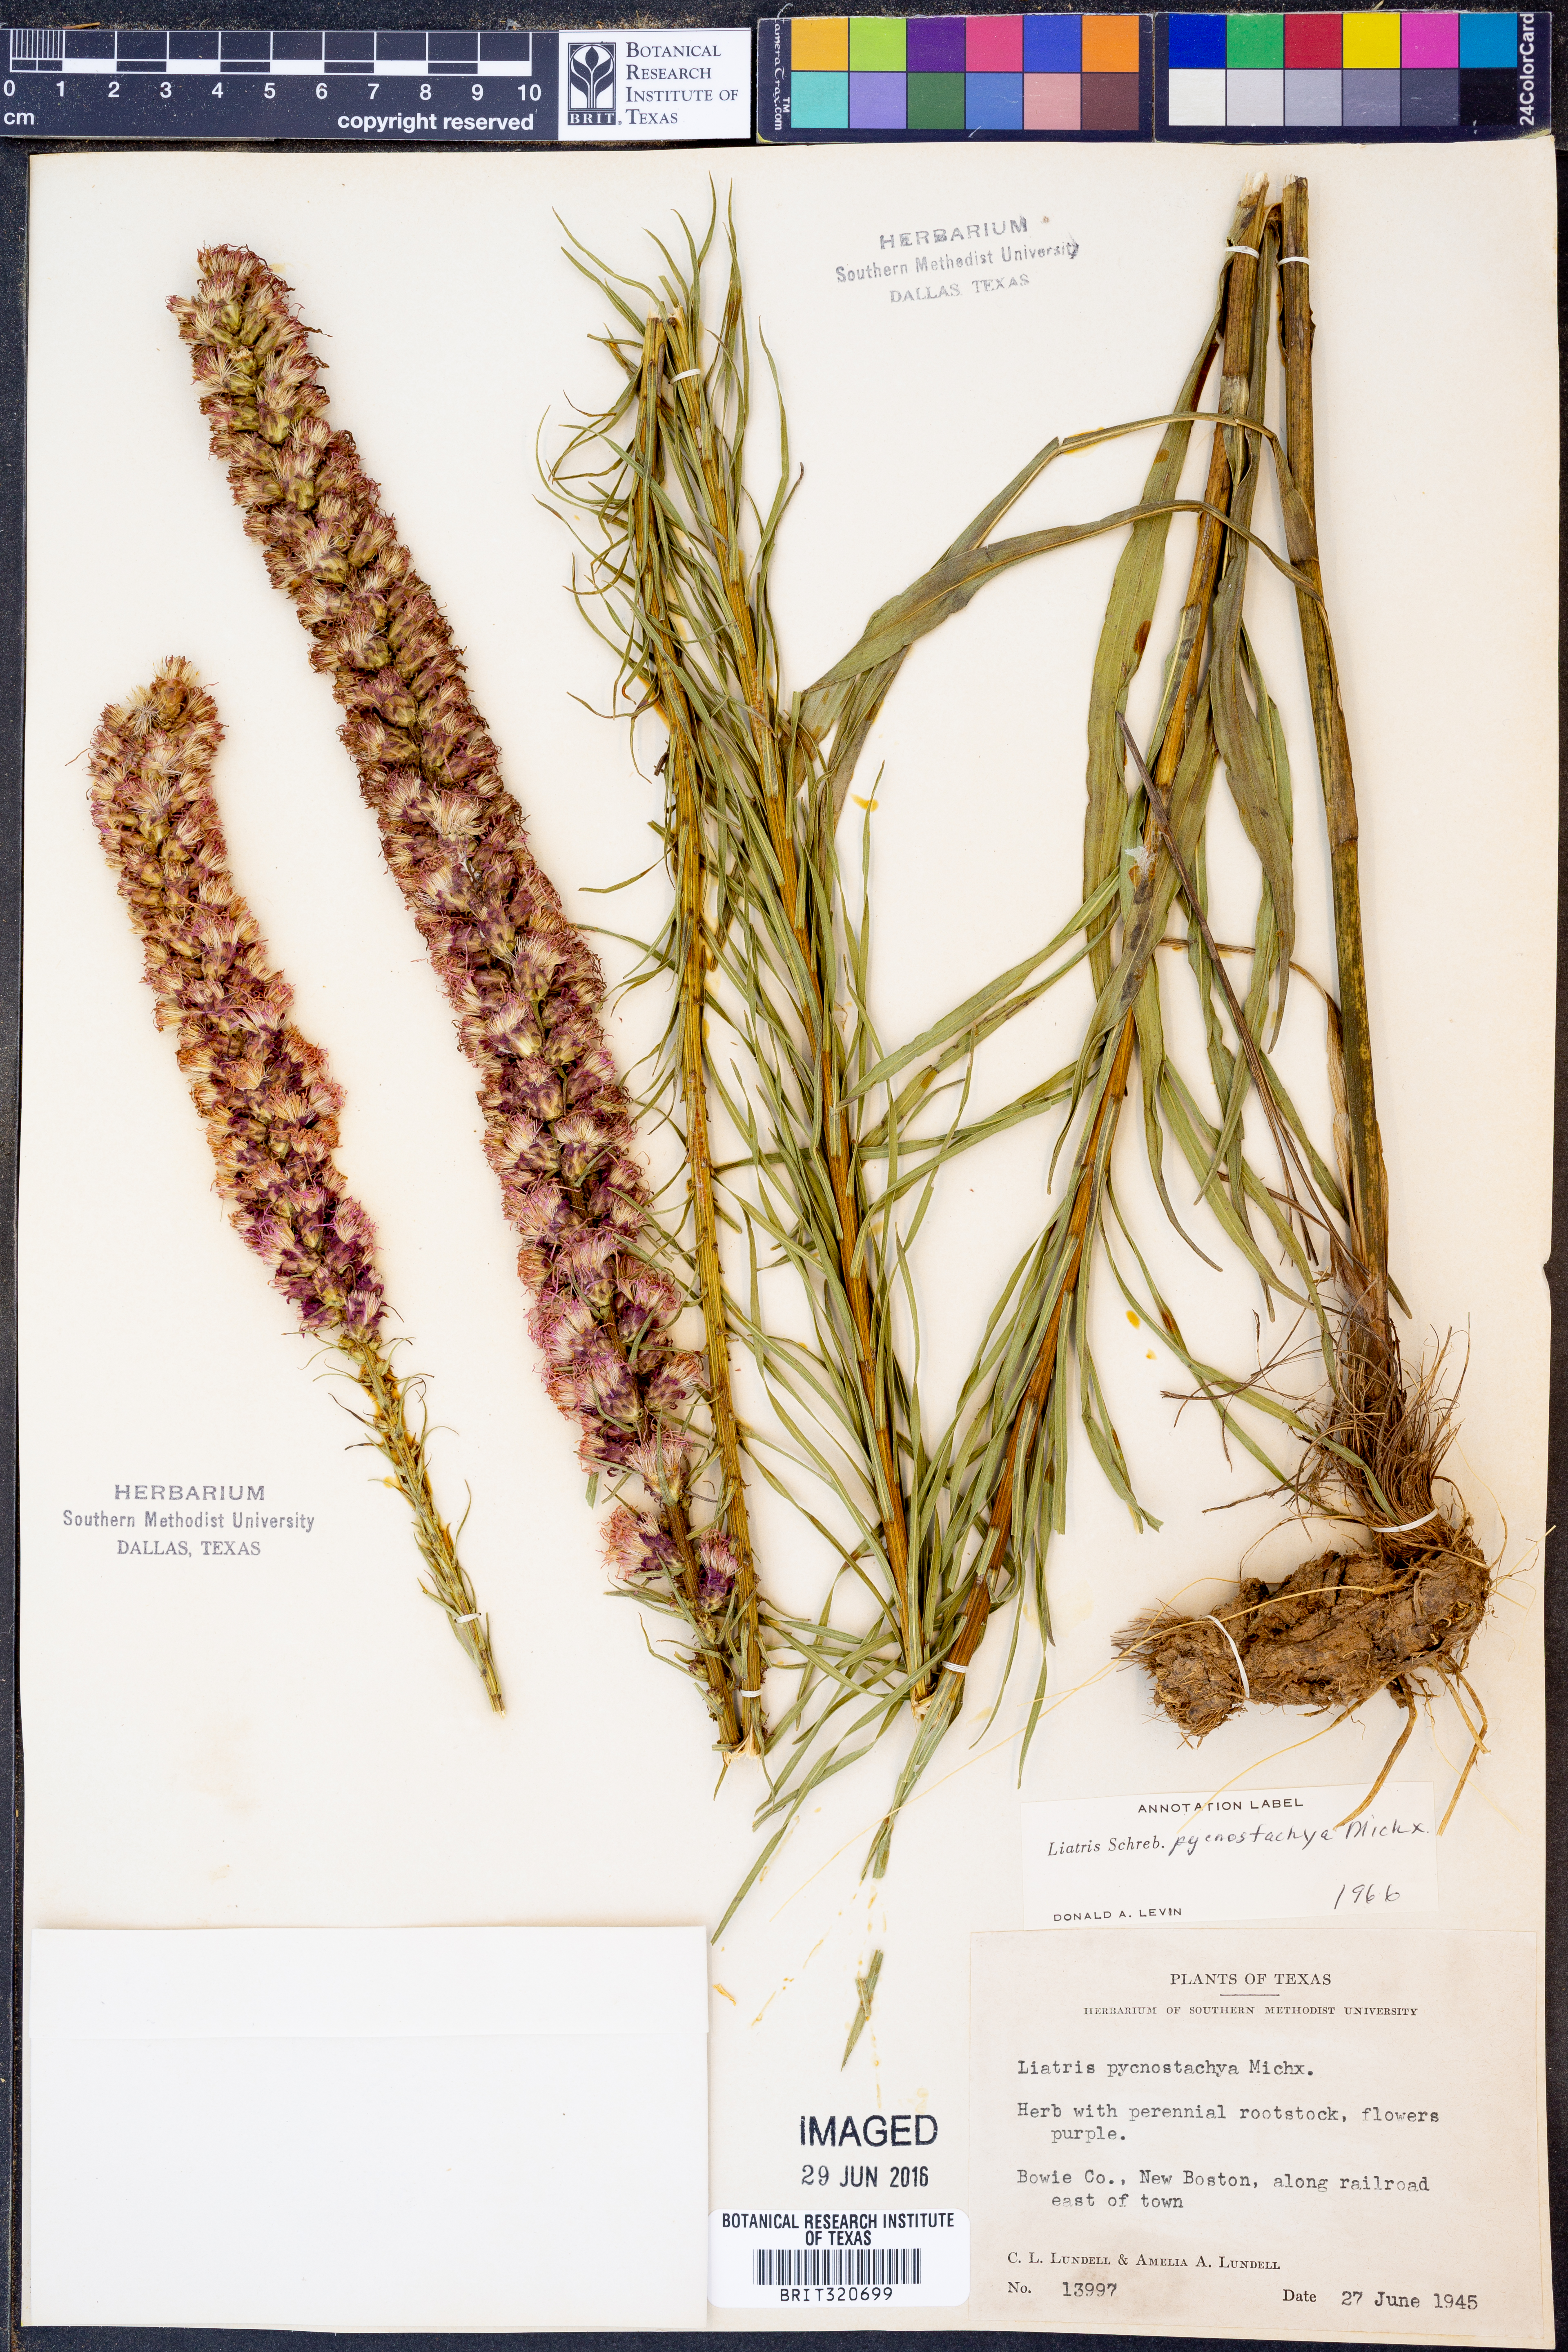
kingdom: Plantae
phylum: Tracheophyta
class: Magnoliopsida
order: Asterales
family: Asteraceae
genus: Liatris
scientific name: Liatris pycnostachya
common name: Cattail gayfeather
